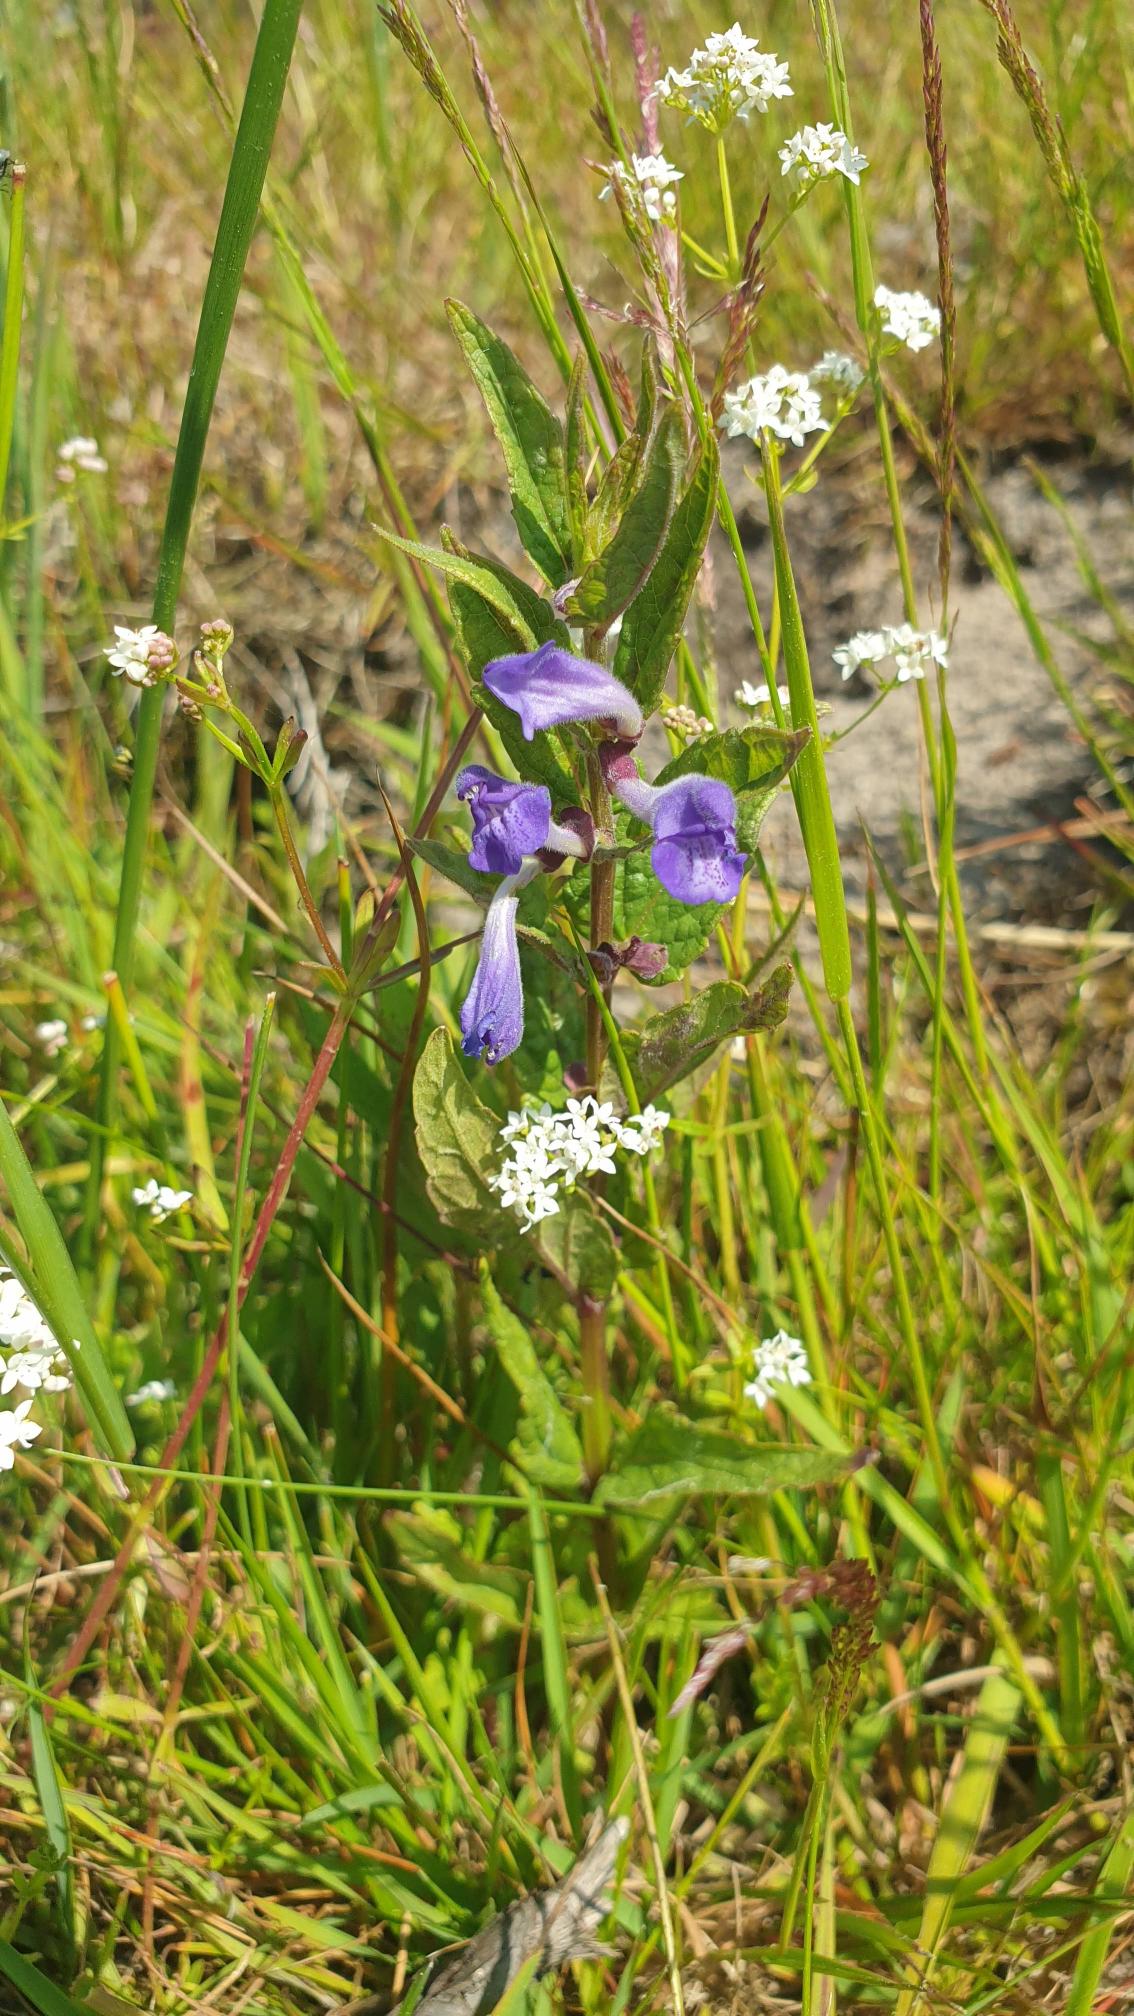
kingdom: Plantae
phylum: Tracheophyta
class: Magnoliopsida
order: Lamiales
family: Lamiaceae
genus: Scutellaria
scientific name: Scutellaria galericulata
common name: Almindelig skjolddrager
